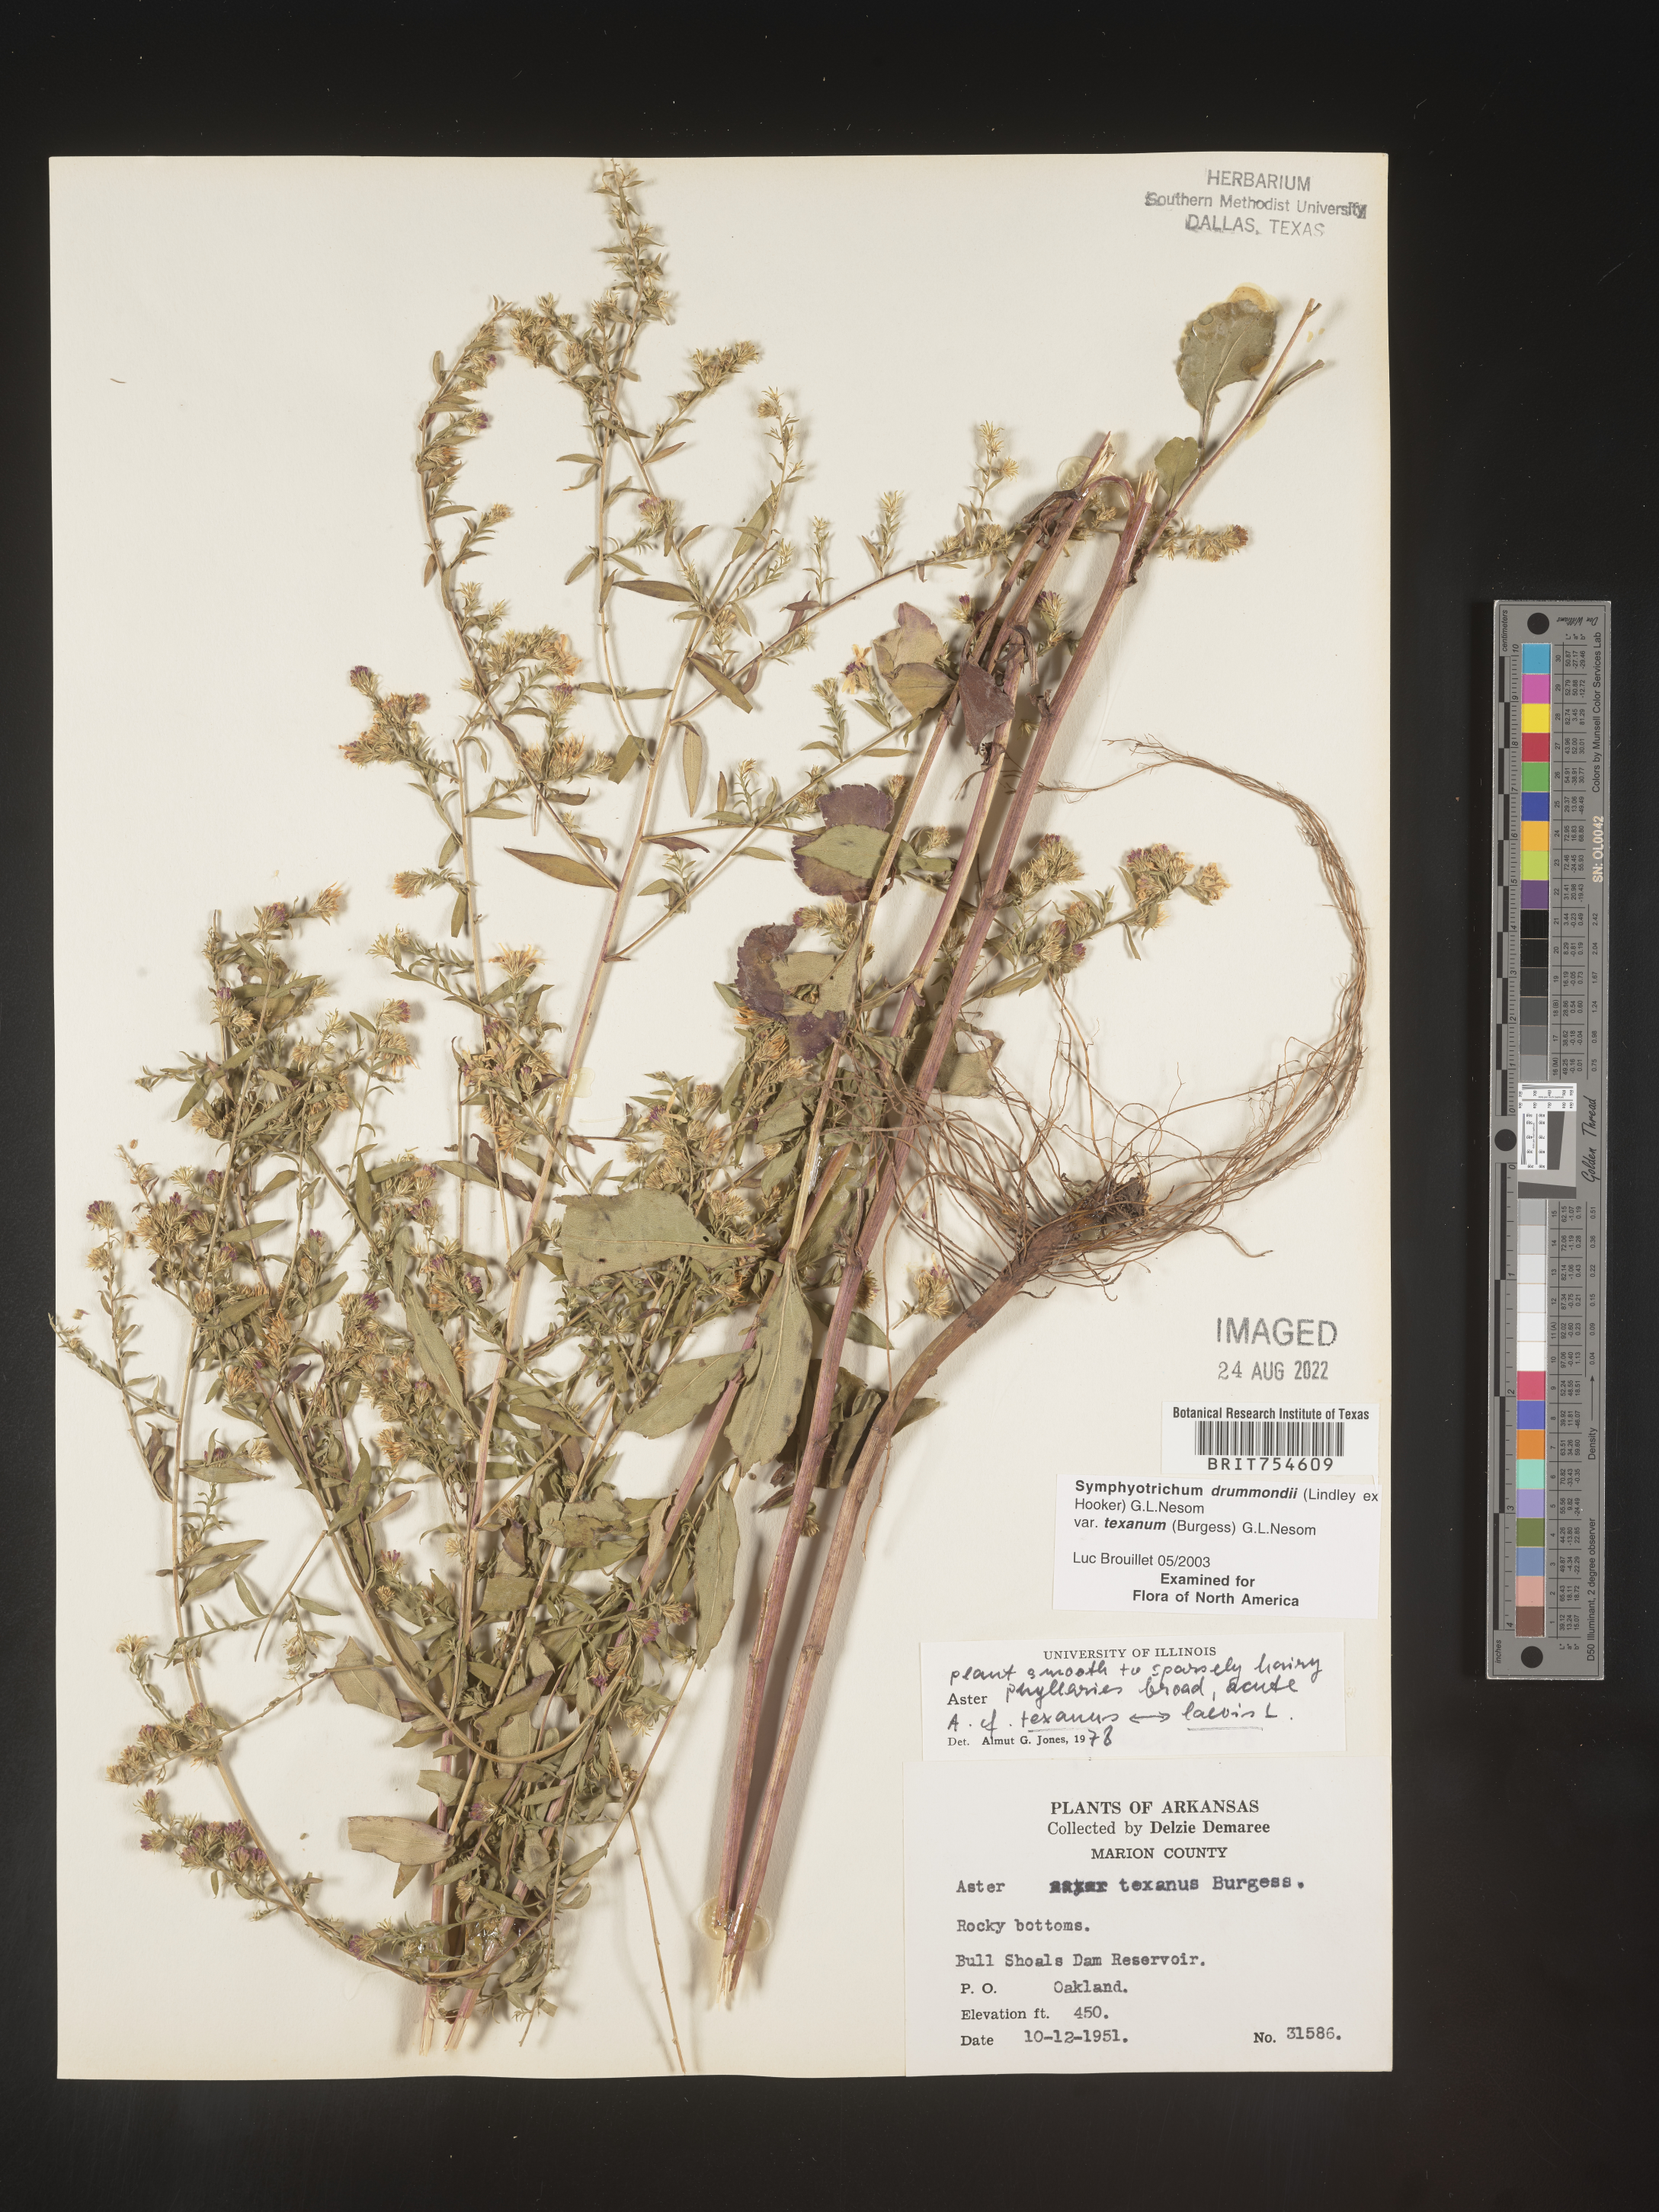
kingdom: Plantae
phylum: Tracheophyta
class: Magnoliopsida
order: Asterales
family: Asteraceae
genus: Symphyotrichum
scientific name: Symphyotrichum urophyllum
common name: Arrow-leaved aster
